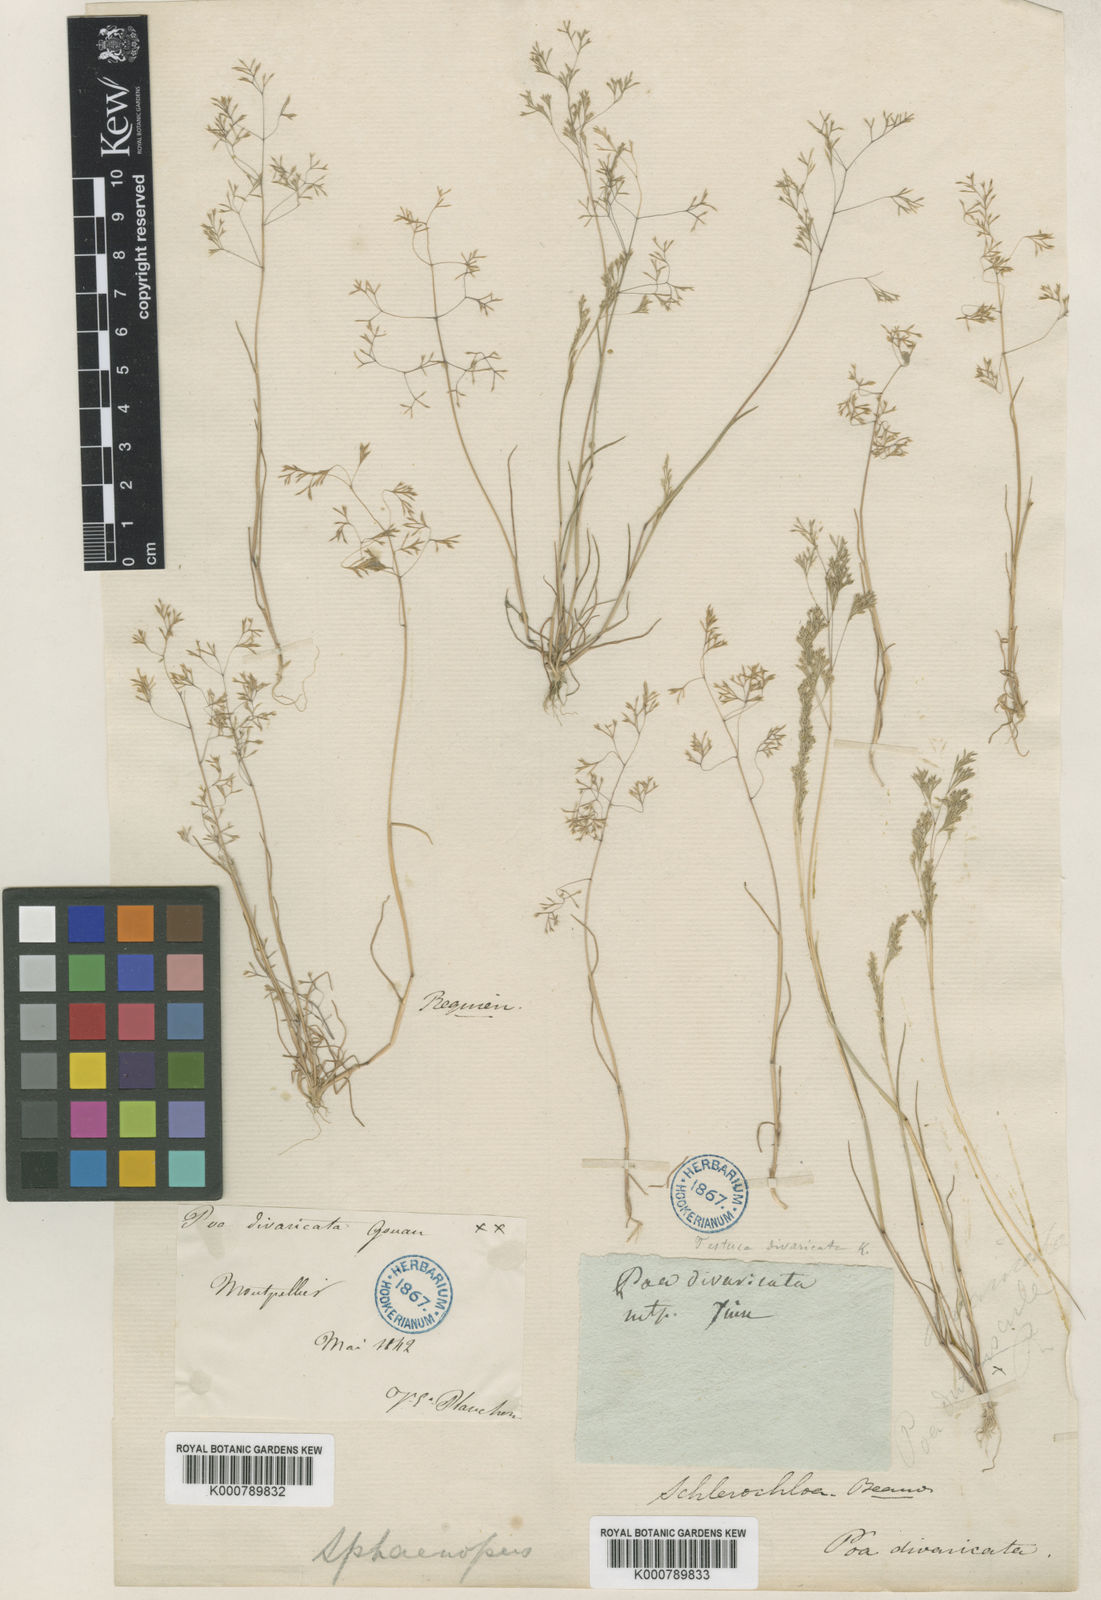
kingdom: Plantae
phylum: Tracheophyta
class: Liliopsida
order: Poales
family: Poaceae
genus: Sphenopus
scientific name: Sphenopus divaricatus
